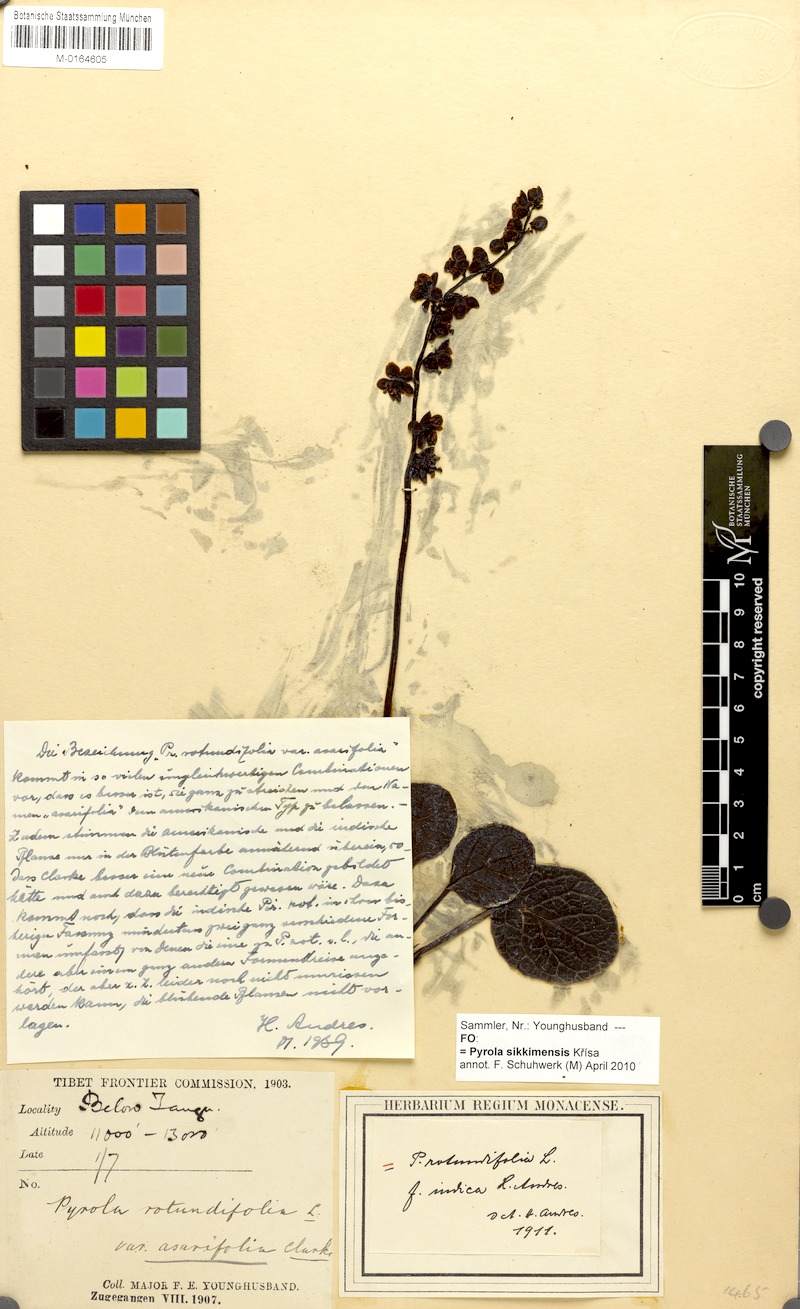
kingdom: Plantae
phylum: Tracheophyta
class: Magnoliopsida
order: Ericales
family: Ericaceae
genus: Pyrola
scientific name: Pyrola asarifolia
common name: Bog wintergreen
